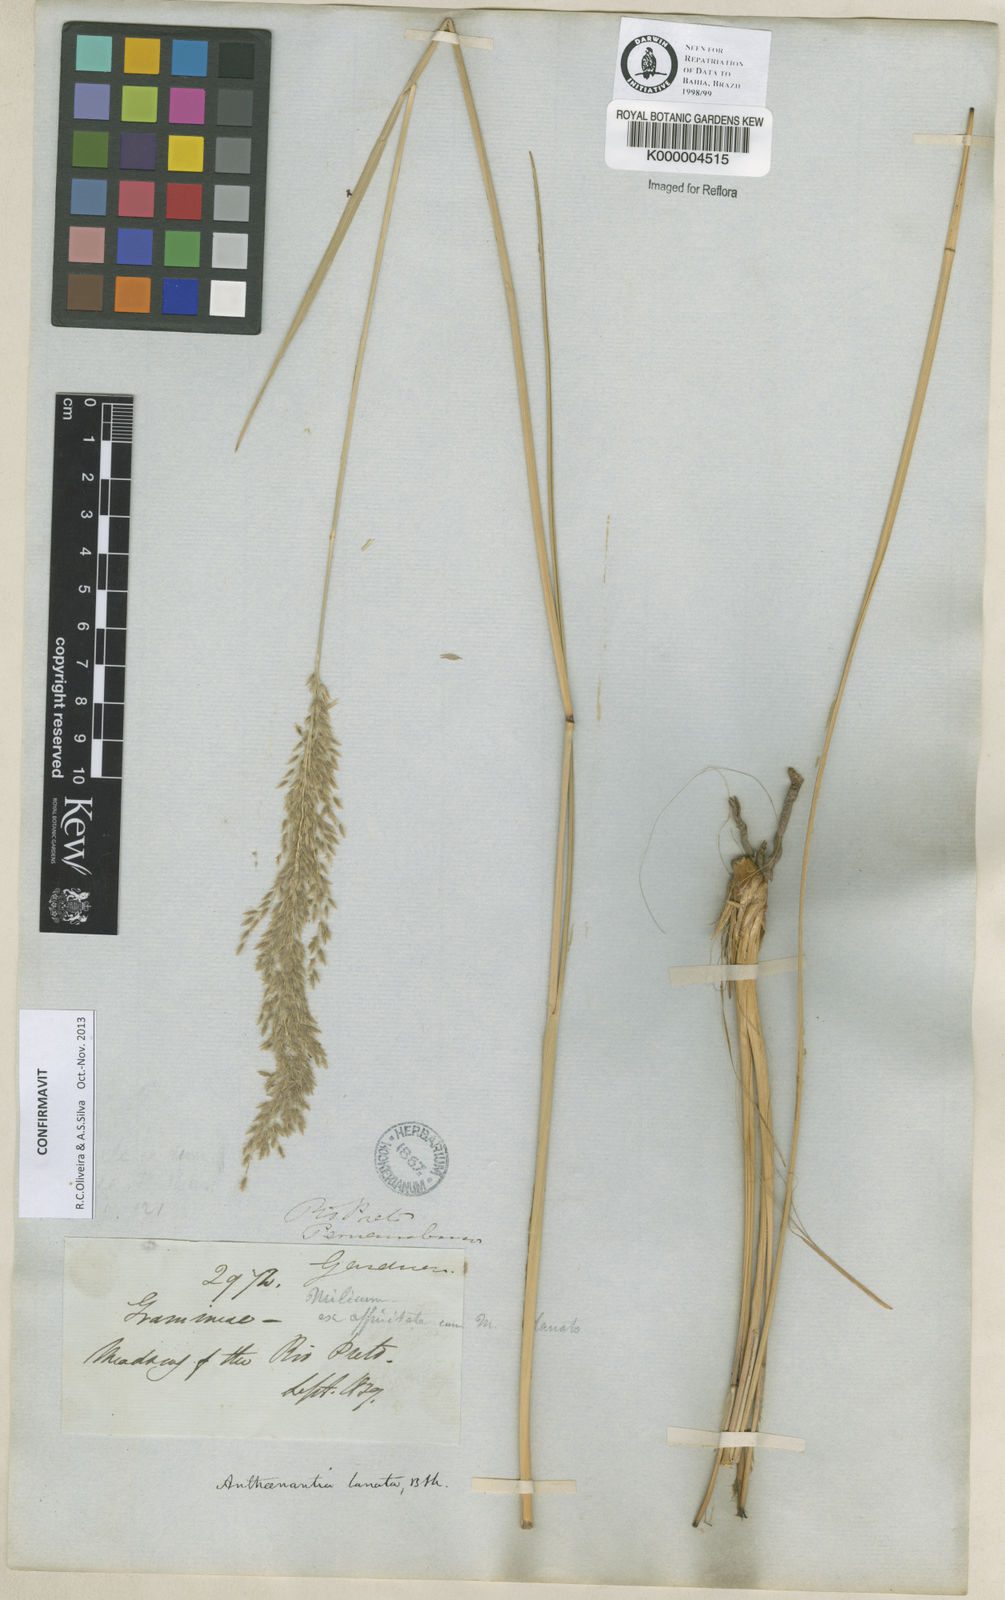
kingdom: Plantae
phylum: Tracheophyta
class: Liliopsida
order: Poales
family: Poaceae
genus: Anthenantia
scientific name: Anthenantia lanata
